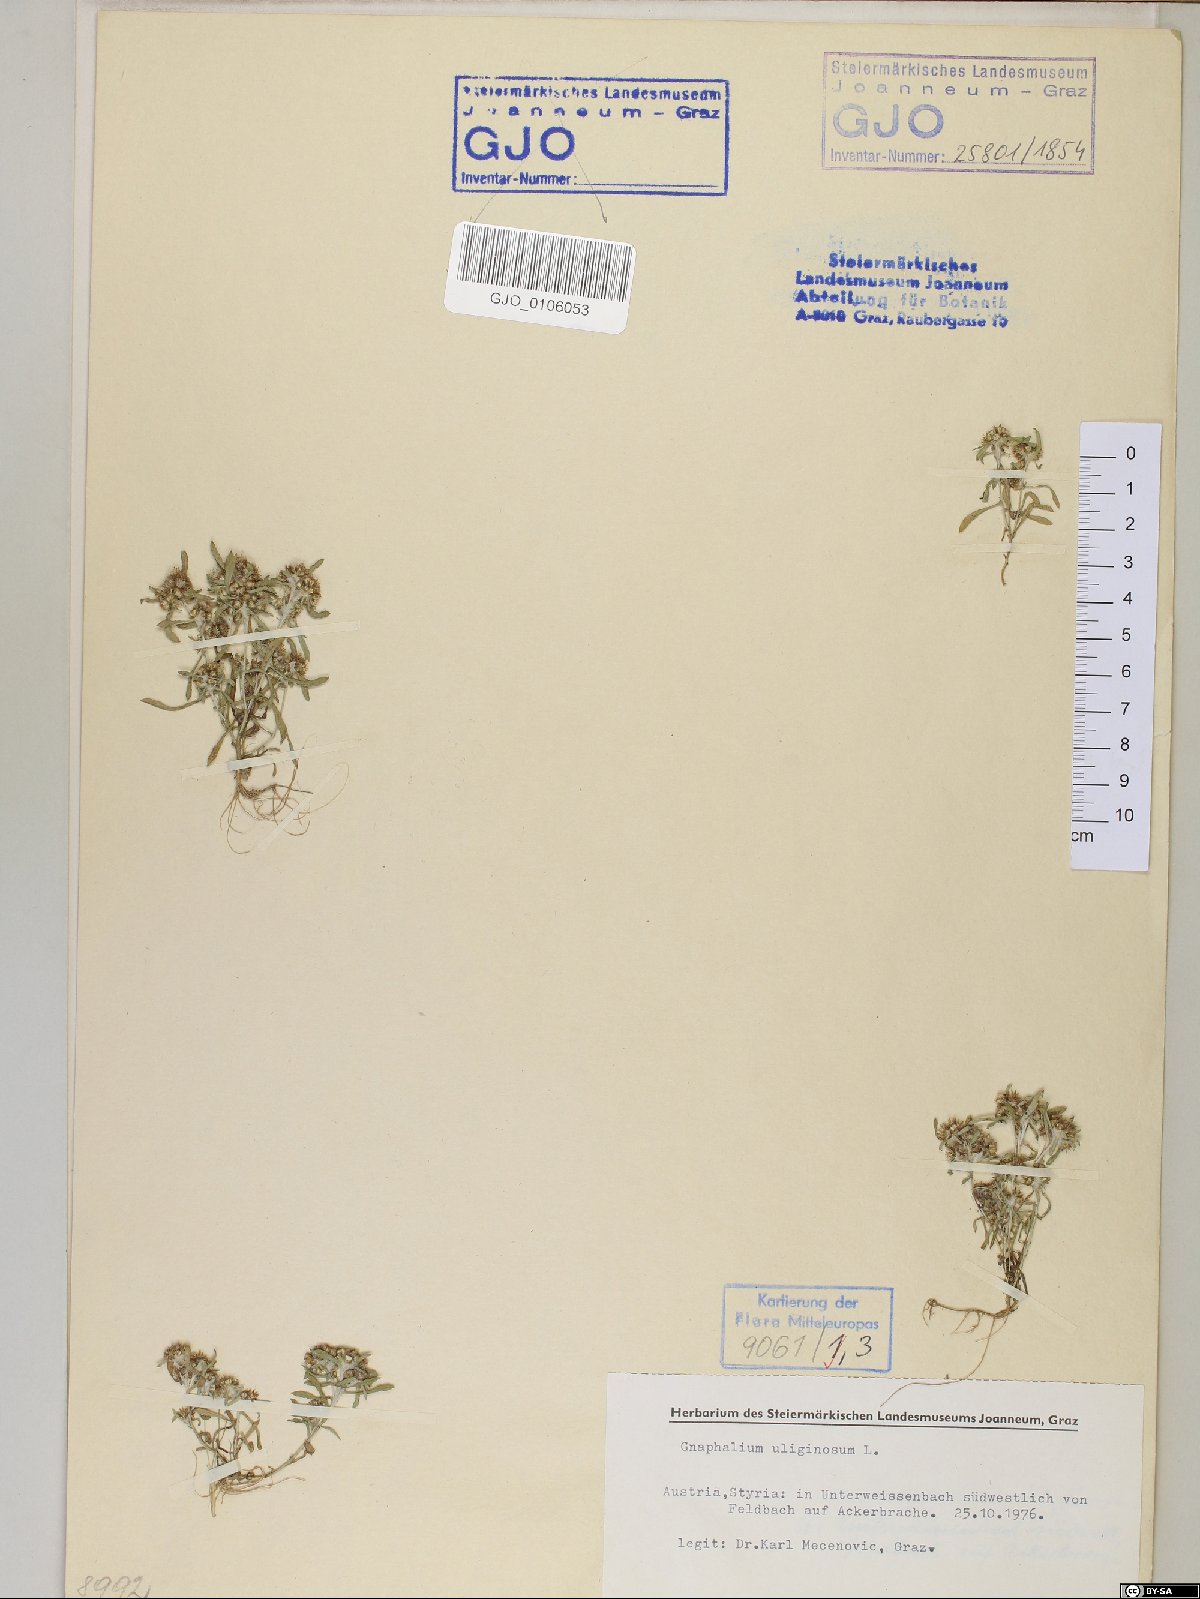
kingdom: Plantae
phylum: Tracheophyta
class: Magnoliopsida
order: Asterales
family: Asteraceae
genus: Gnaphalium
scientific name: Gnaphalium uliginosum
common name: Marsh cudweed
